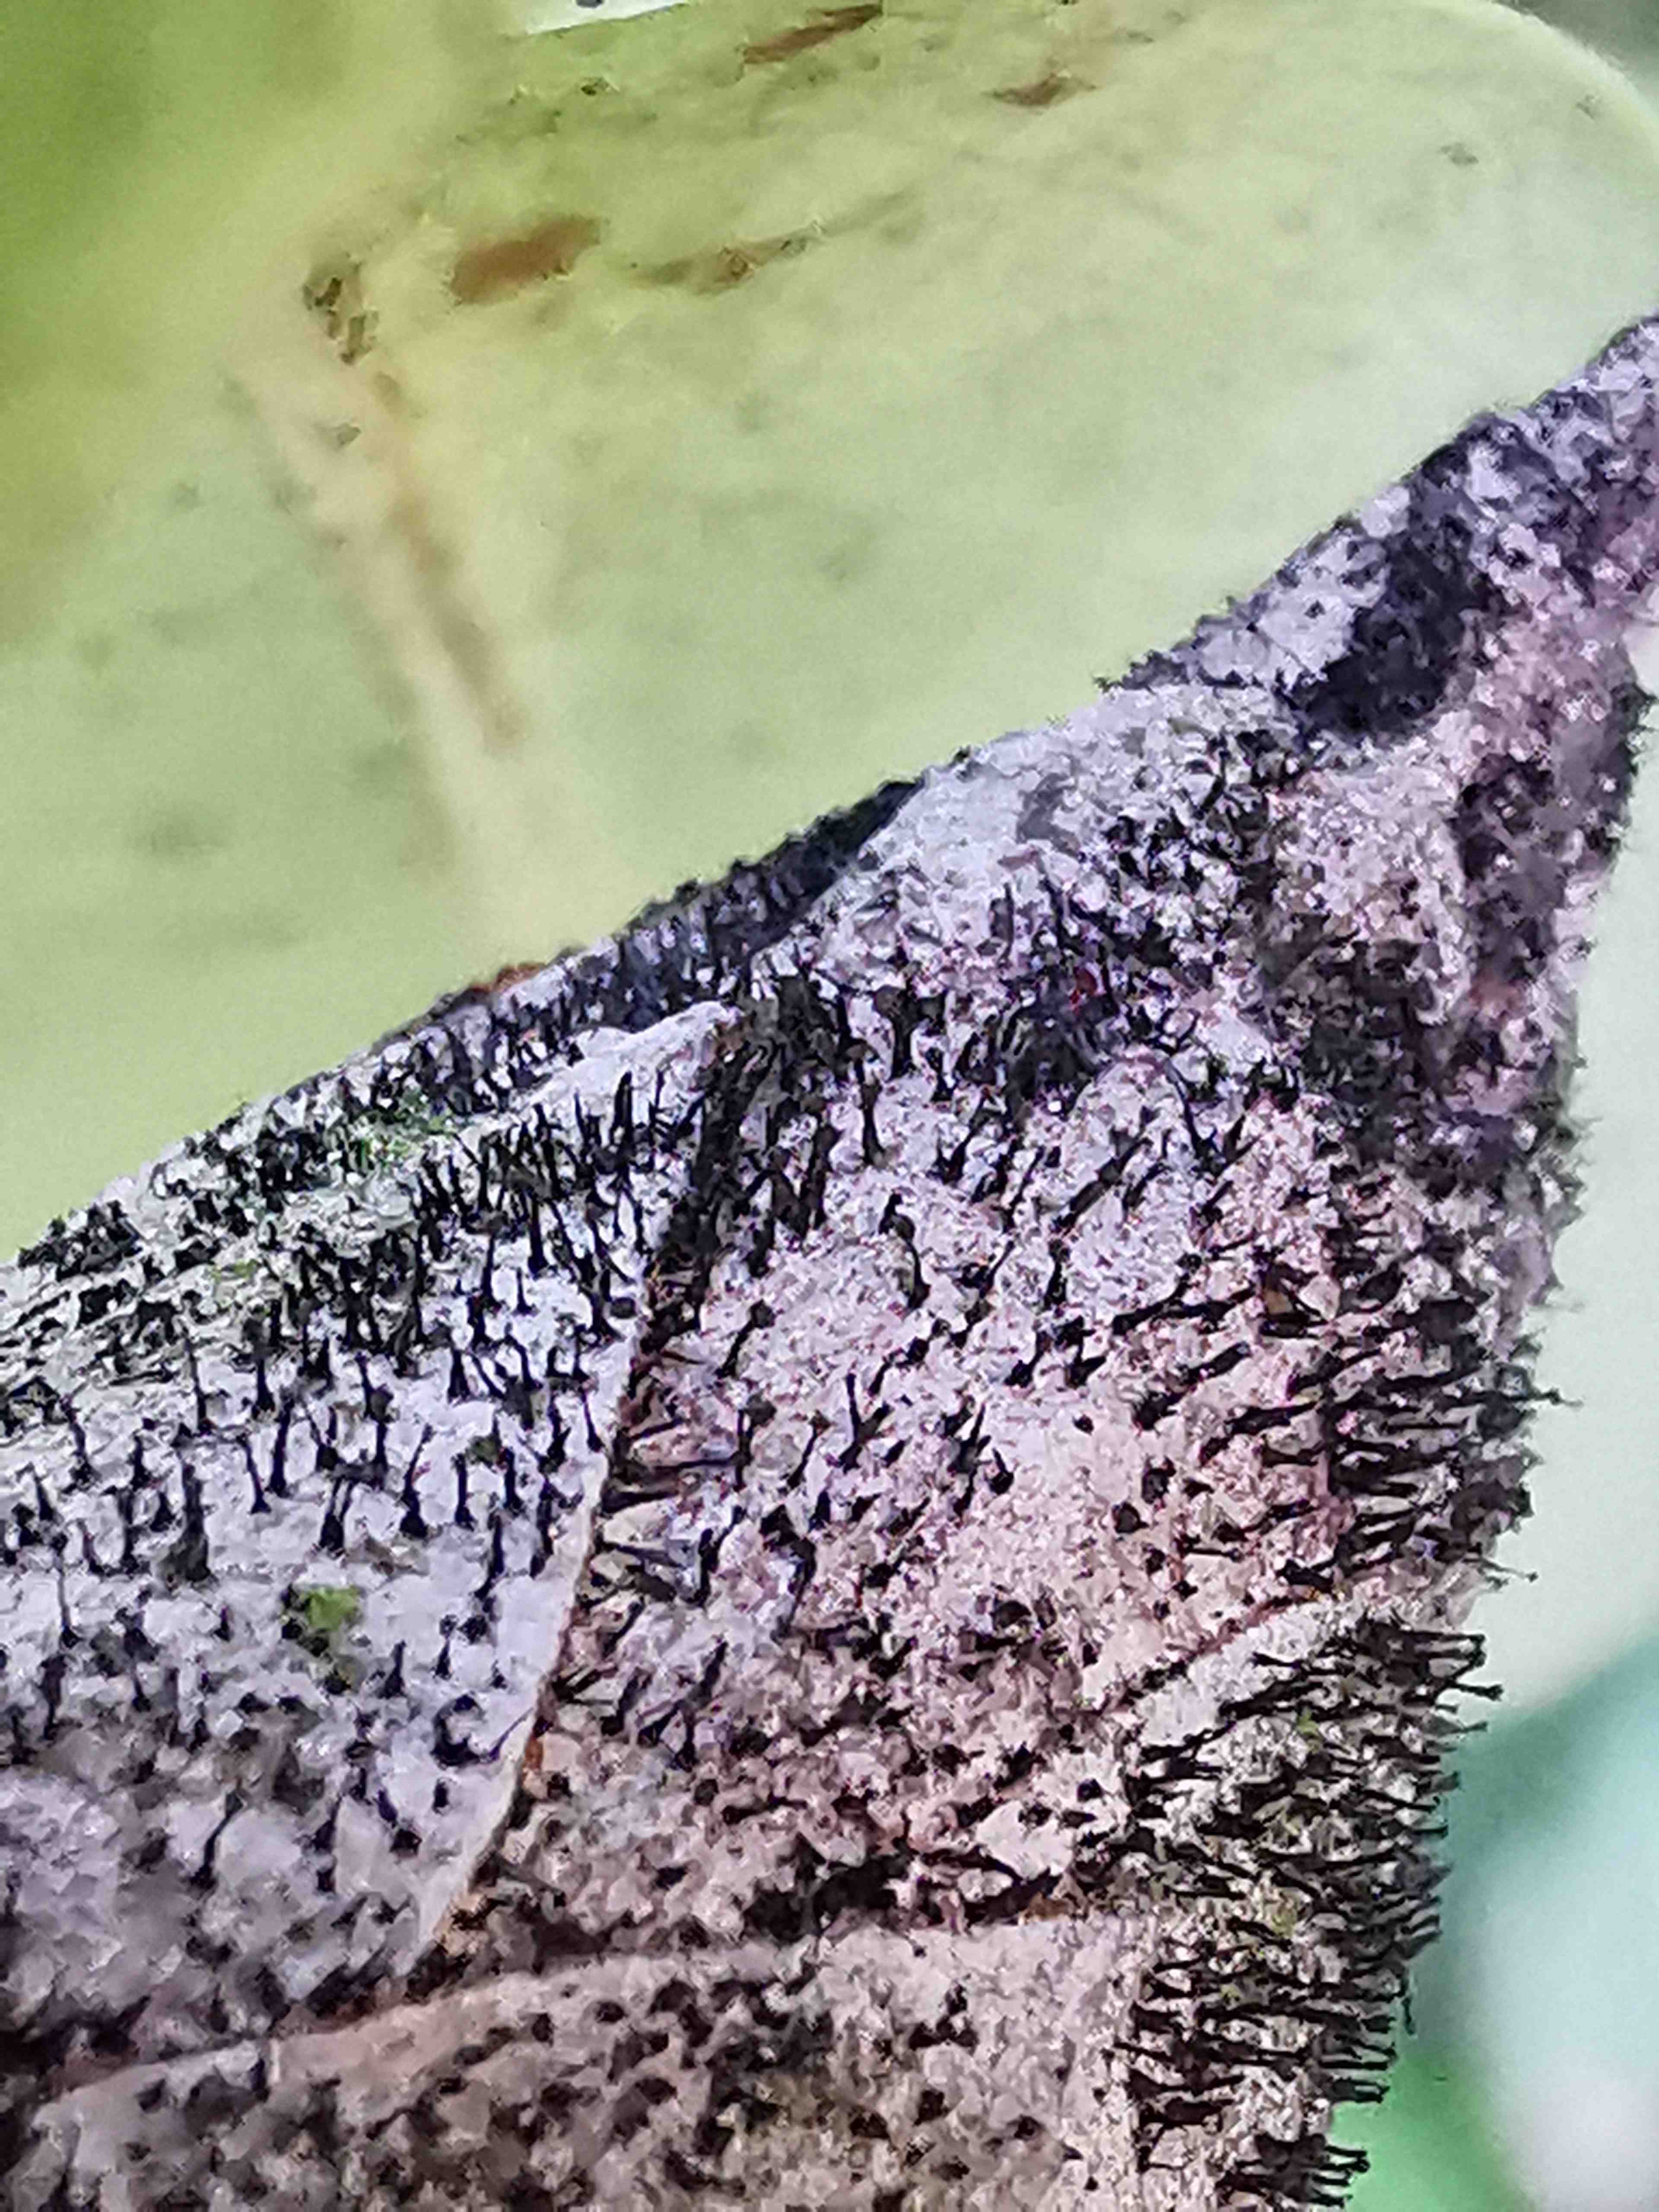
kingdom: Fungi
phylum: Ascomycota
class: Dothideomycetes
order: Pleosporales
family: Melanommataceae
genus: Seifertia
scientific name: Seifertia azaleae
